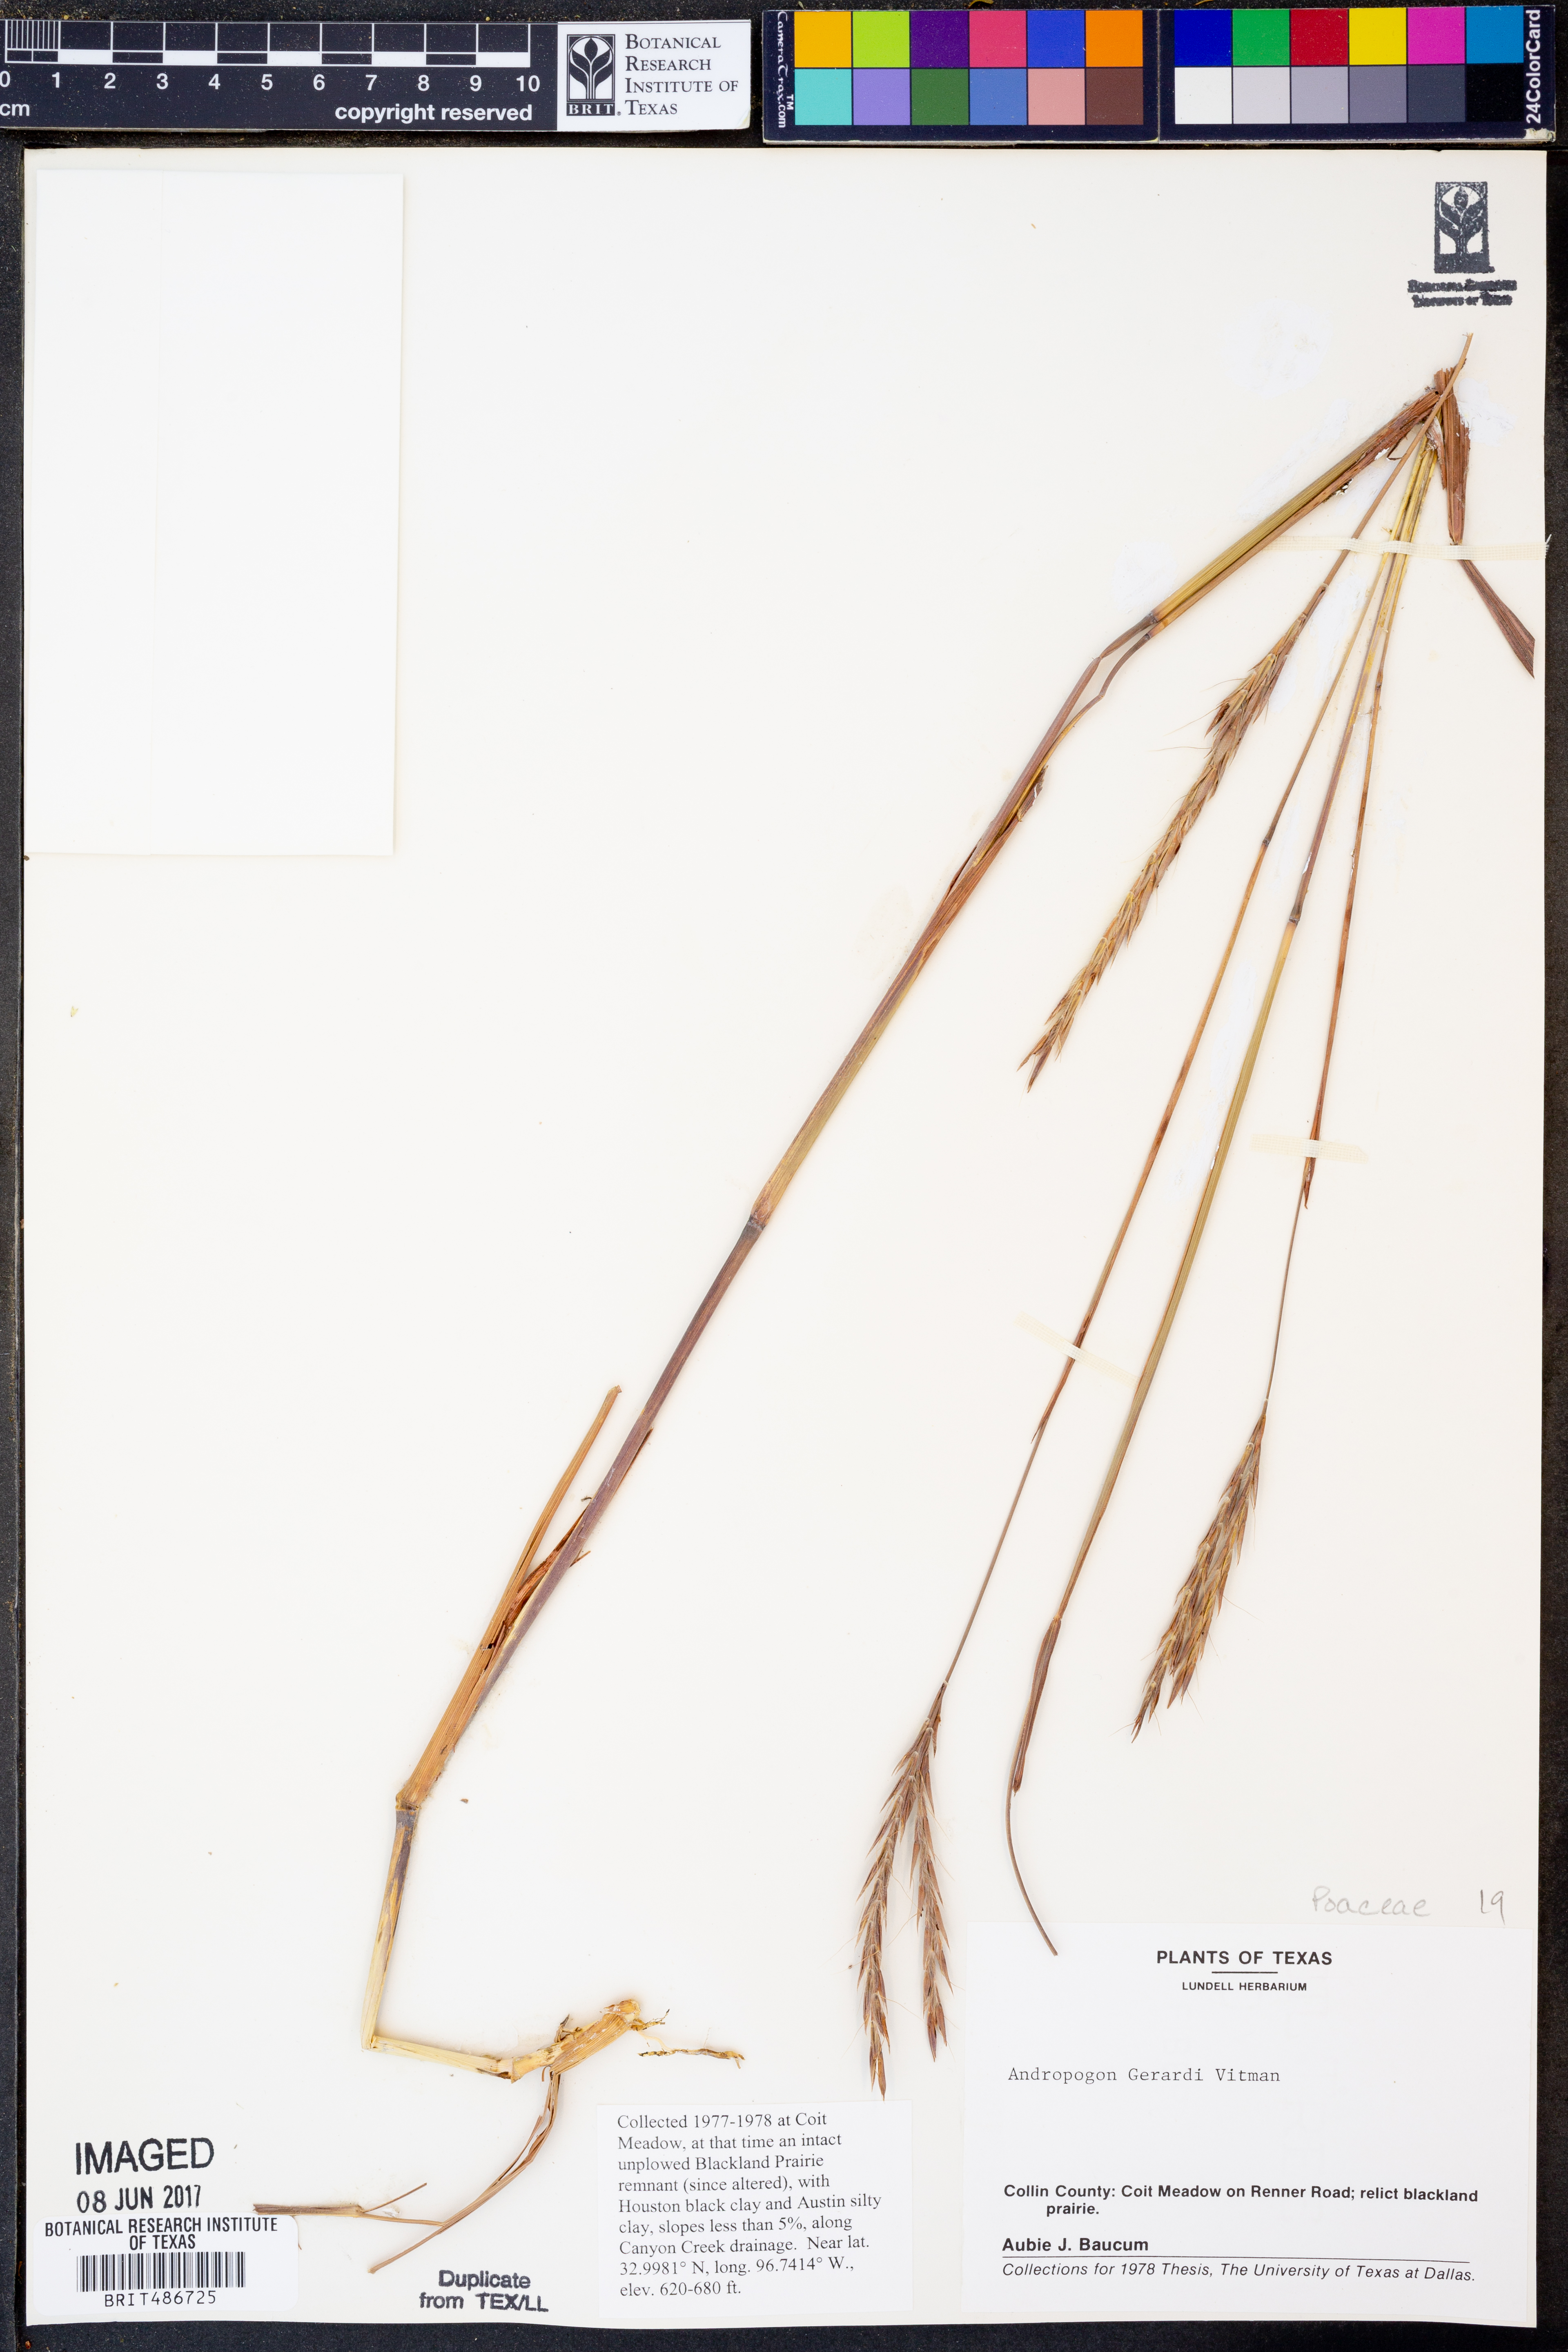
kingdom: Plantae
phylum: Tracheophyta
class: Liliopsida
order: Poales
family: Poaceae
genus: Andropogon
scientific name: Andropogon gerardi
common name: Big bluestem
